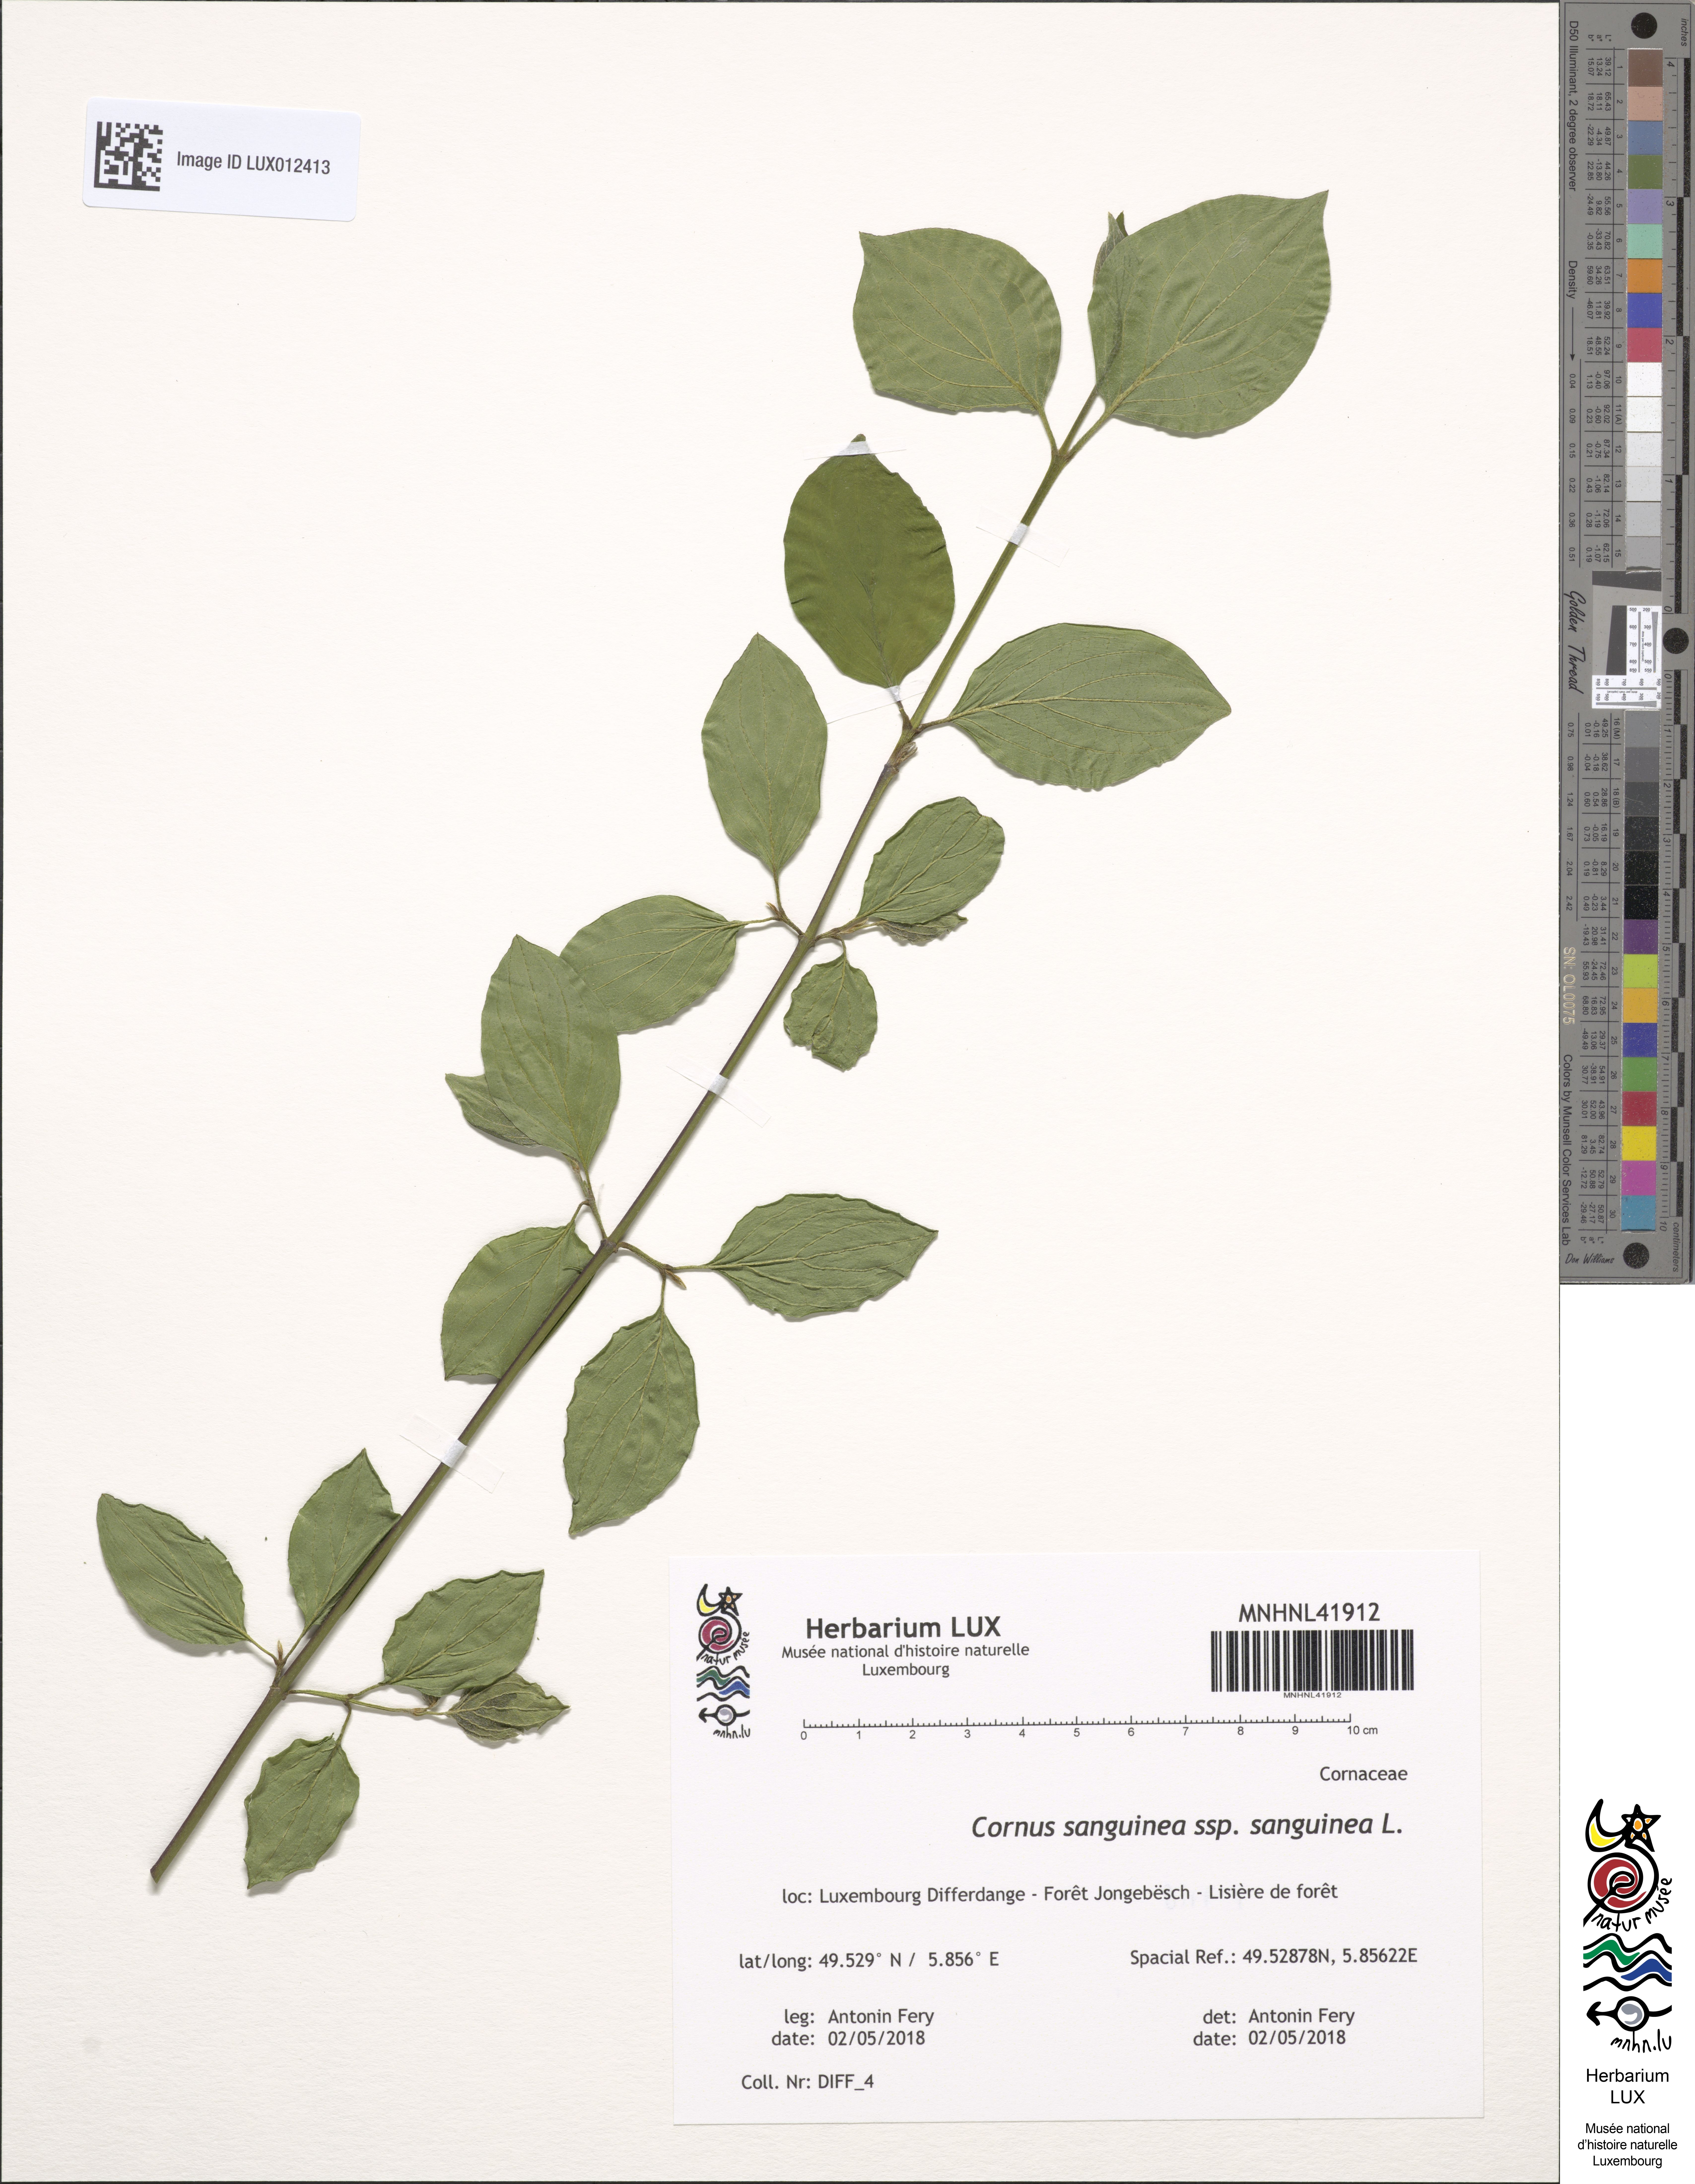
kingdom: Plantae
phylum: Tracheophyta
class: Magnoliopsida
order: Cornales
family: Cornaceae
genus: Cornus
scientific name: Cornus sanguinea
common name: Dogwood
